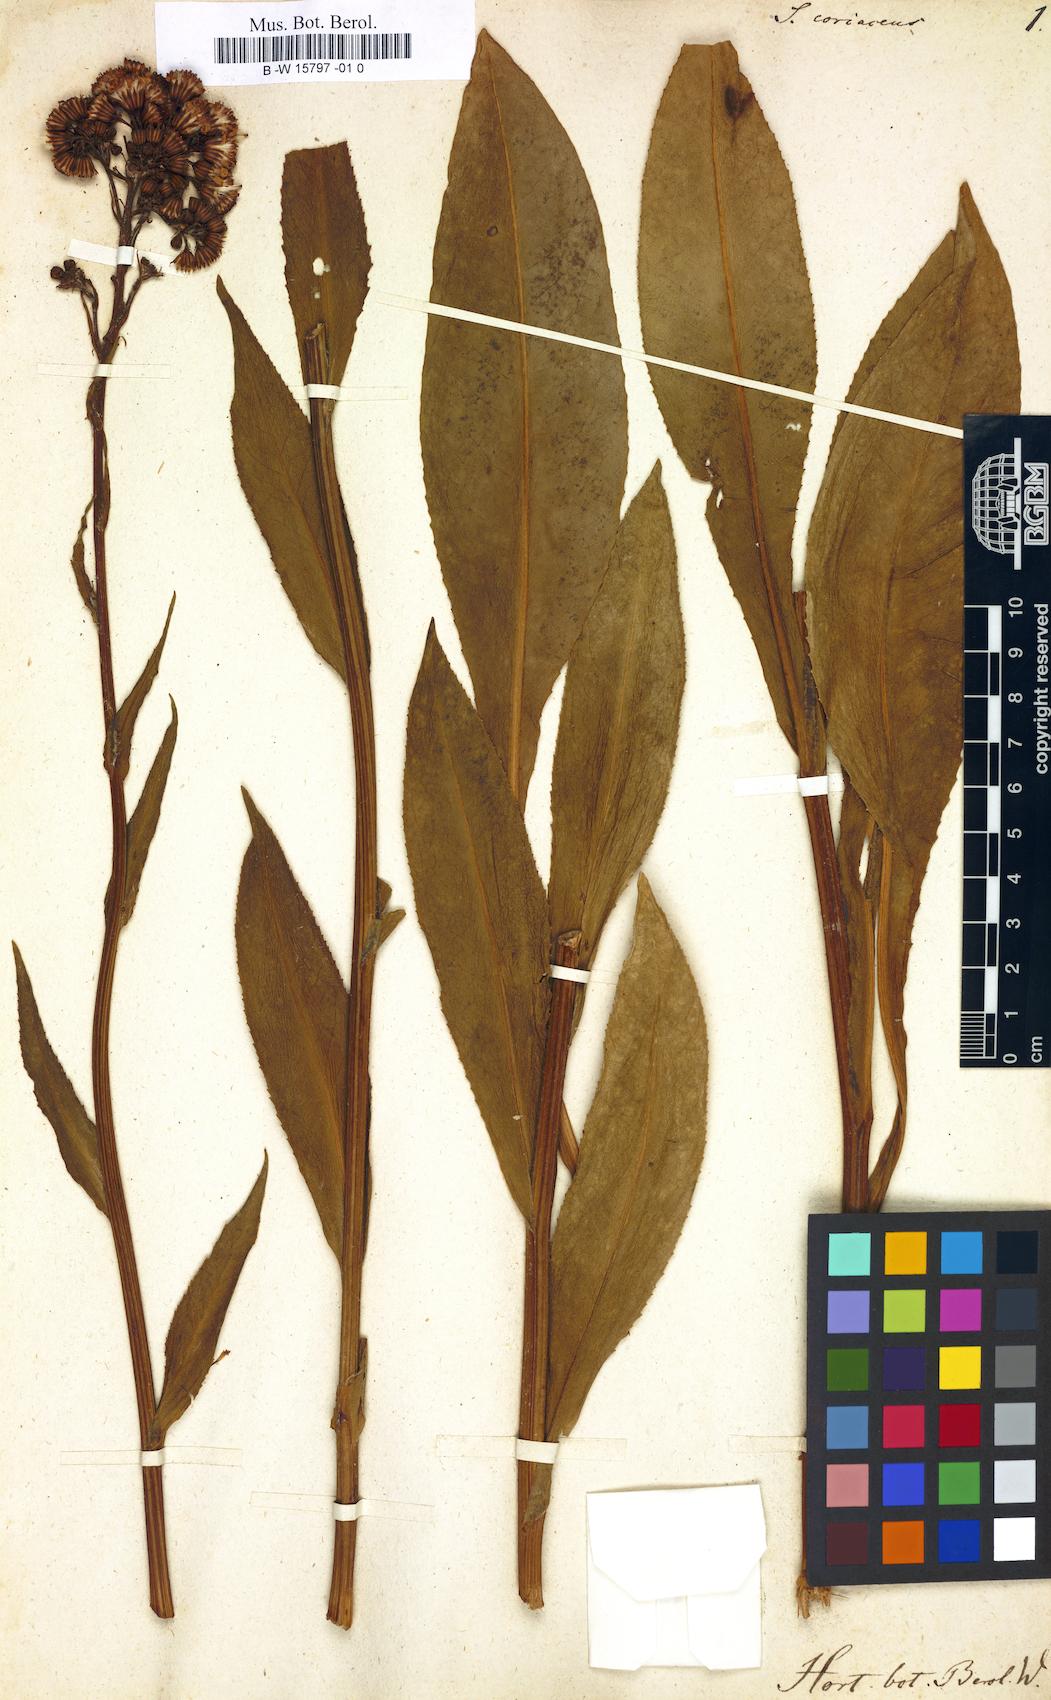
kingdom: Plantae
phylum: Tracheophyta
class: Magnoliopsida
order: Asterales
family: Asteraceae
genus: Senecio
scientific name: Senecio doria
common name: Golden ragwort
